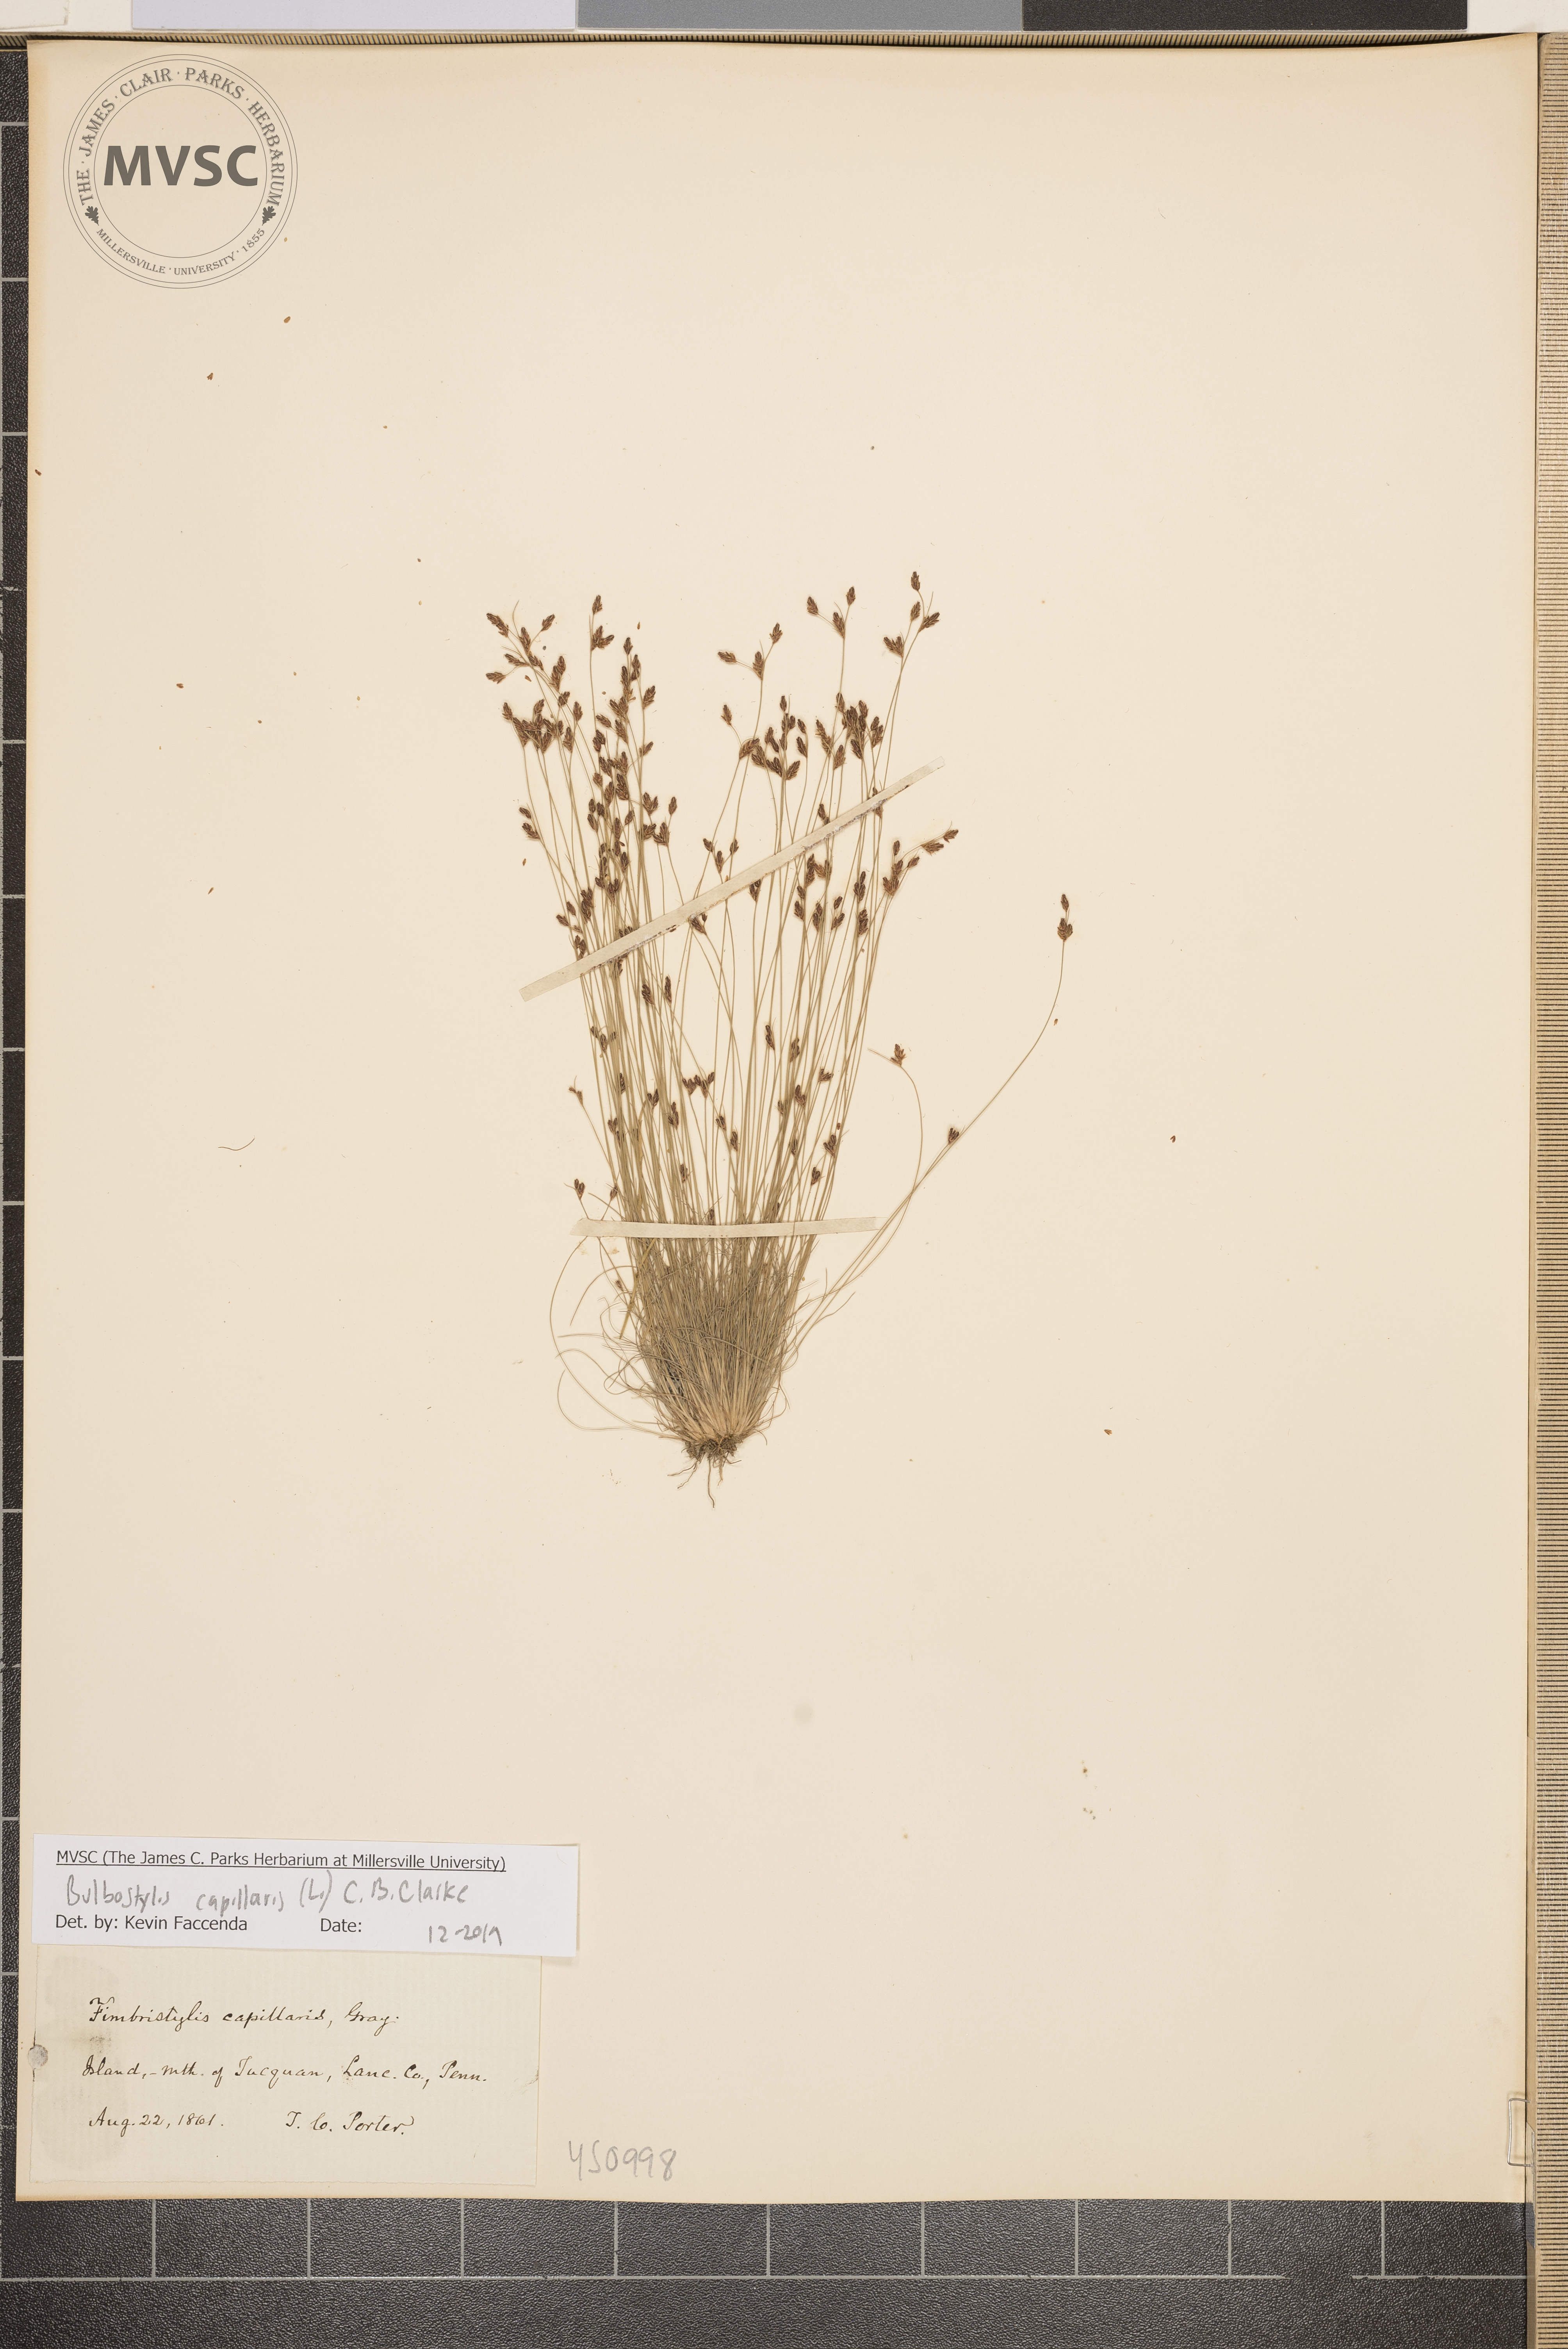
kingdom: Plantae
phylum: Tracheophyta
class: Liliopsida
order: Poales
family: Cyperaceae
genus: Bulbostylis
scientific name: Bulbostylis capillaris
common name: Densetuft hairsedge
